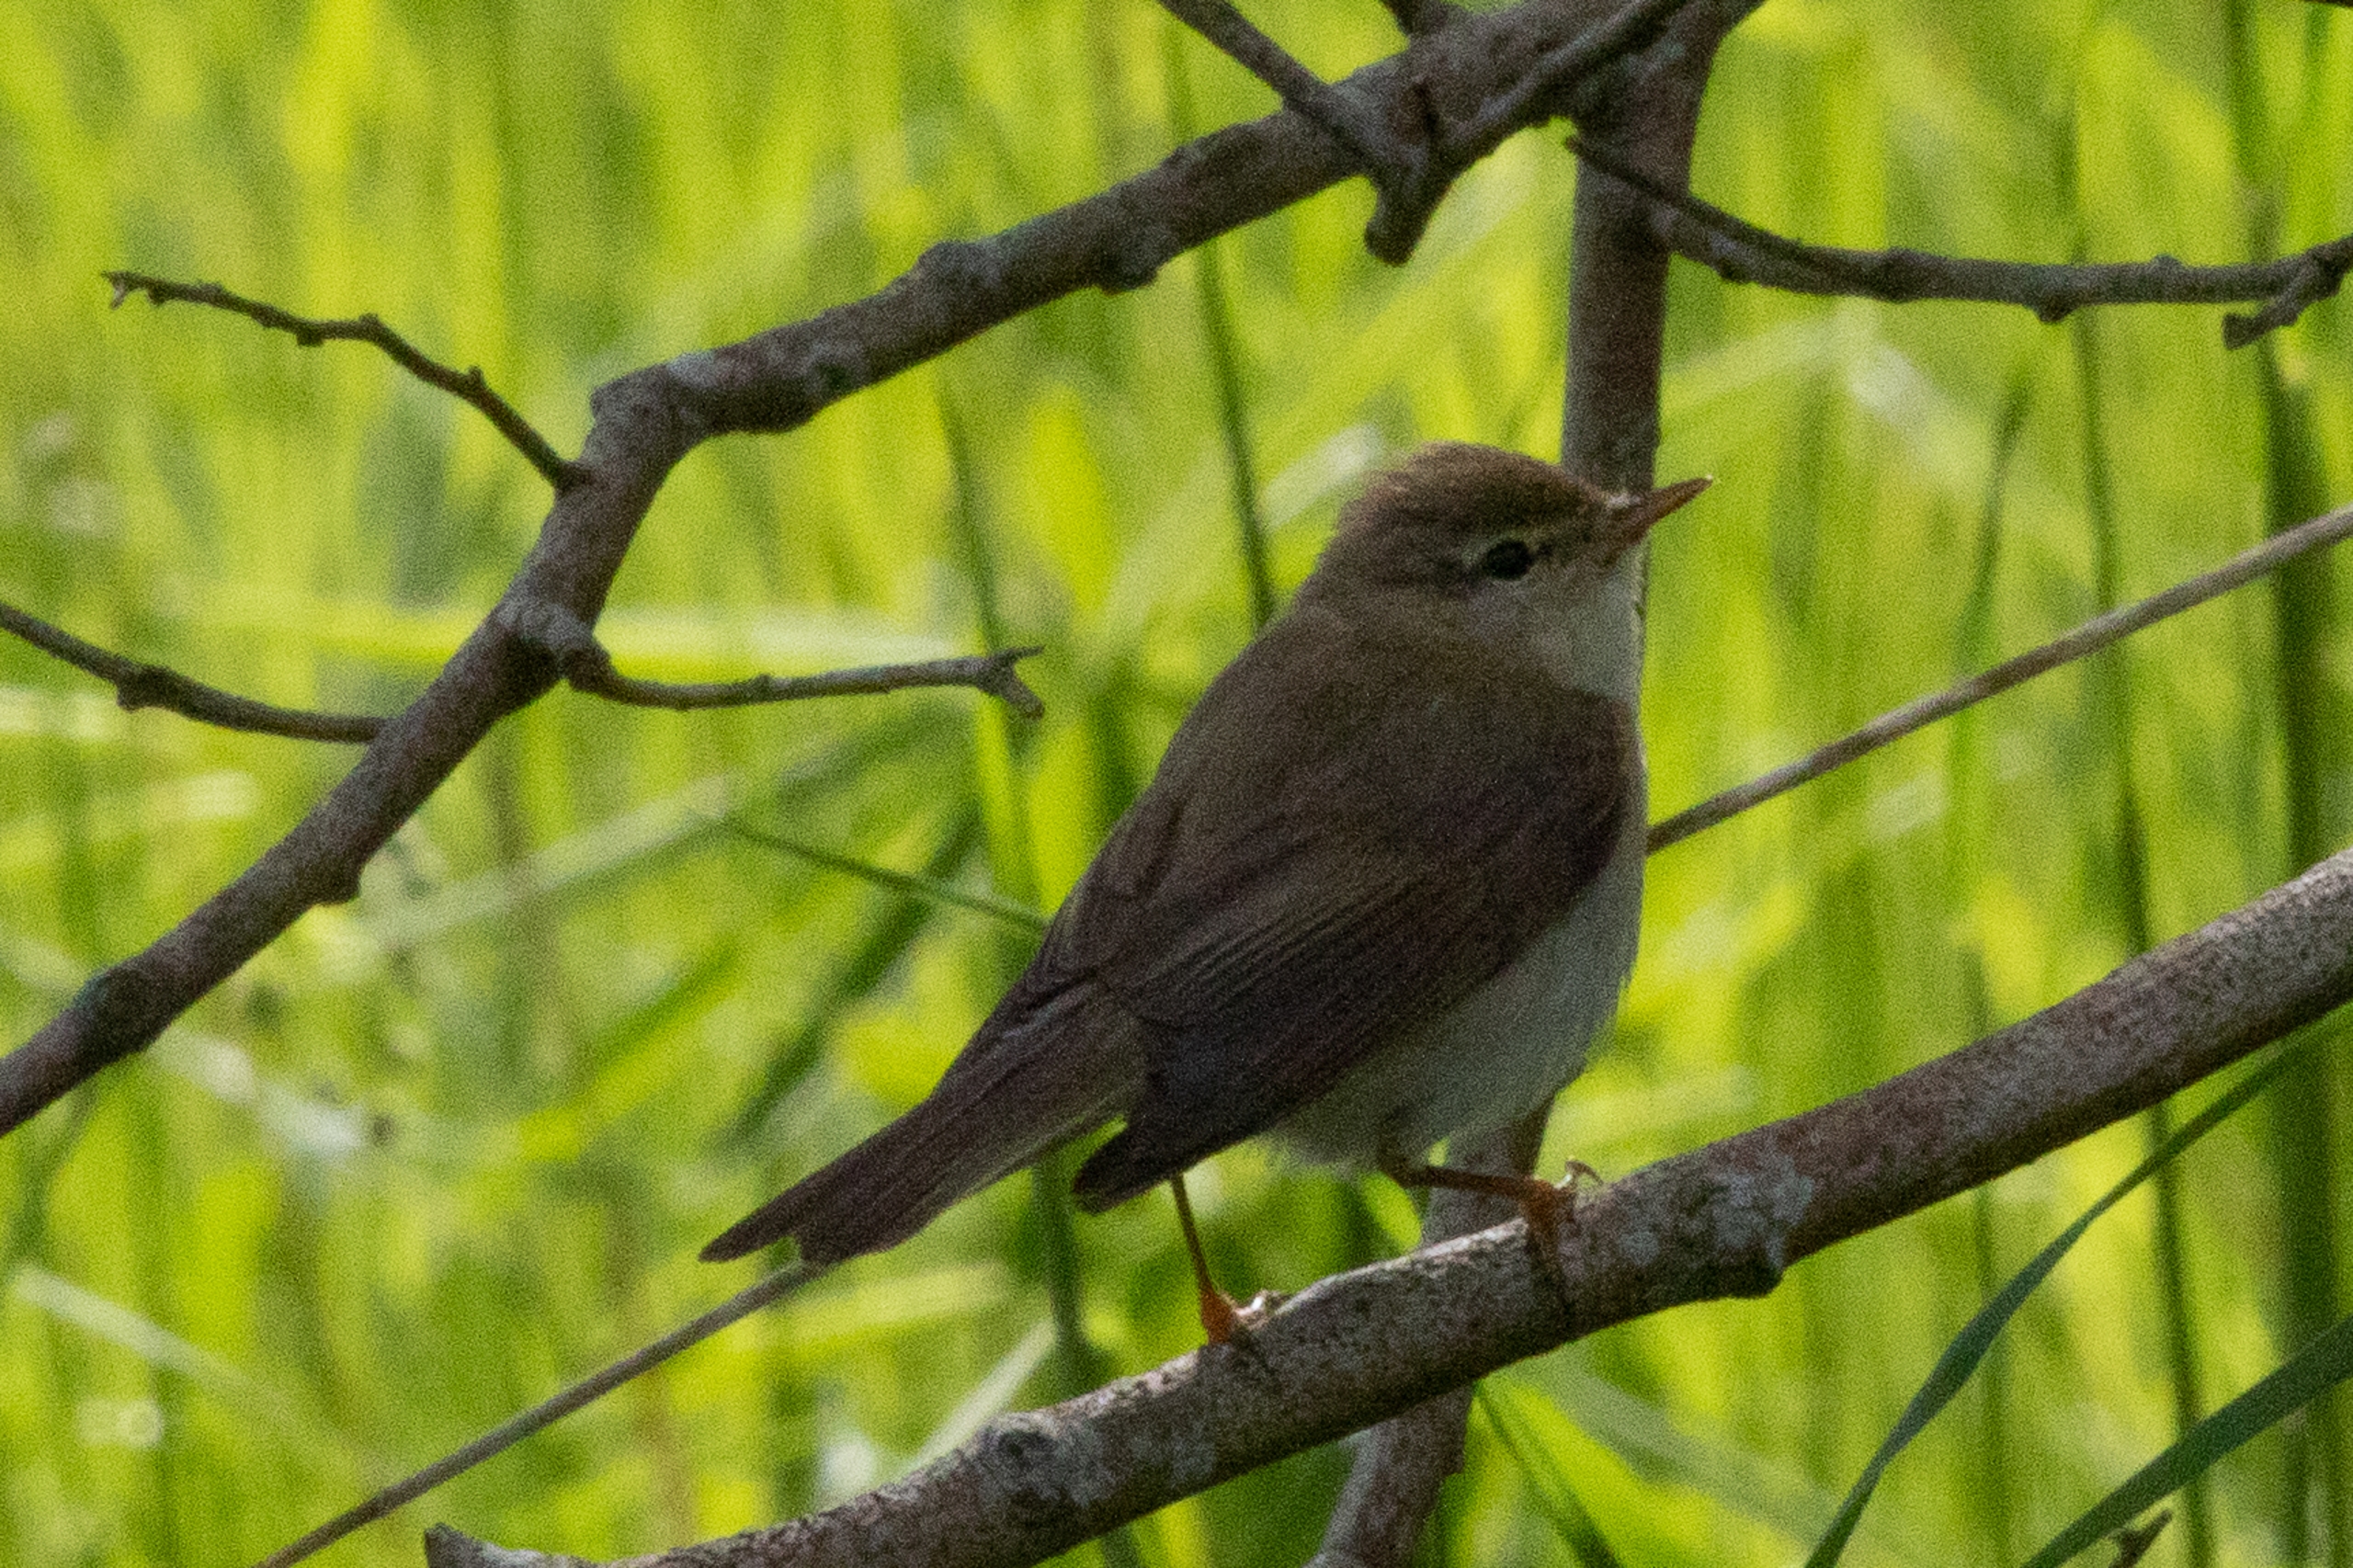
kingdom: Animalia
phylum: Chordata
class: Aves
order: Passeriformes
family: Phylloscopidae
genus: Phylloscopus
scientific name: Phylloscopus trochilus
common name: Løvsanger
